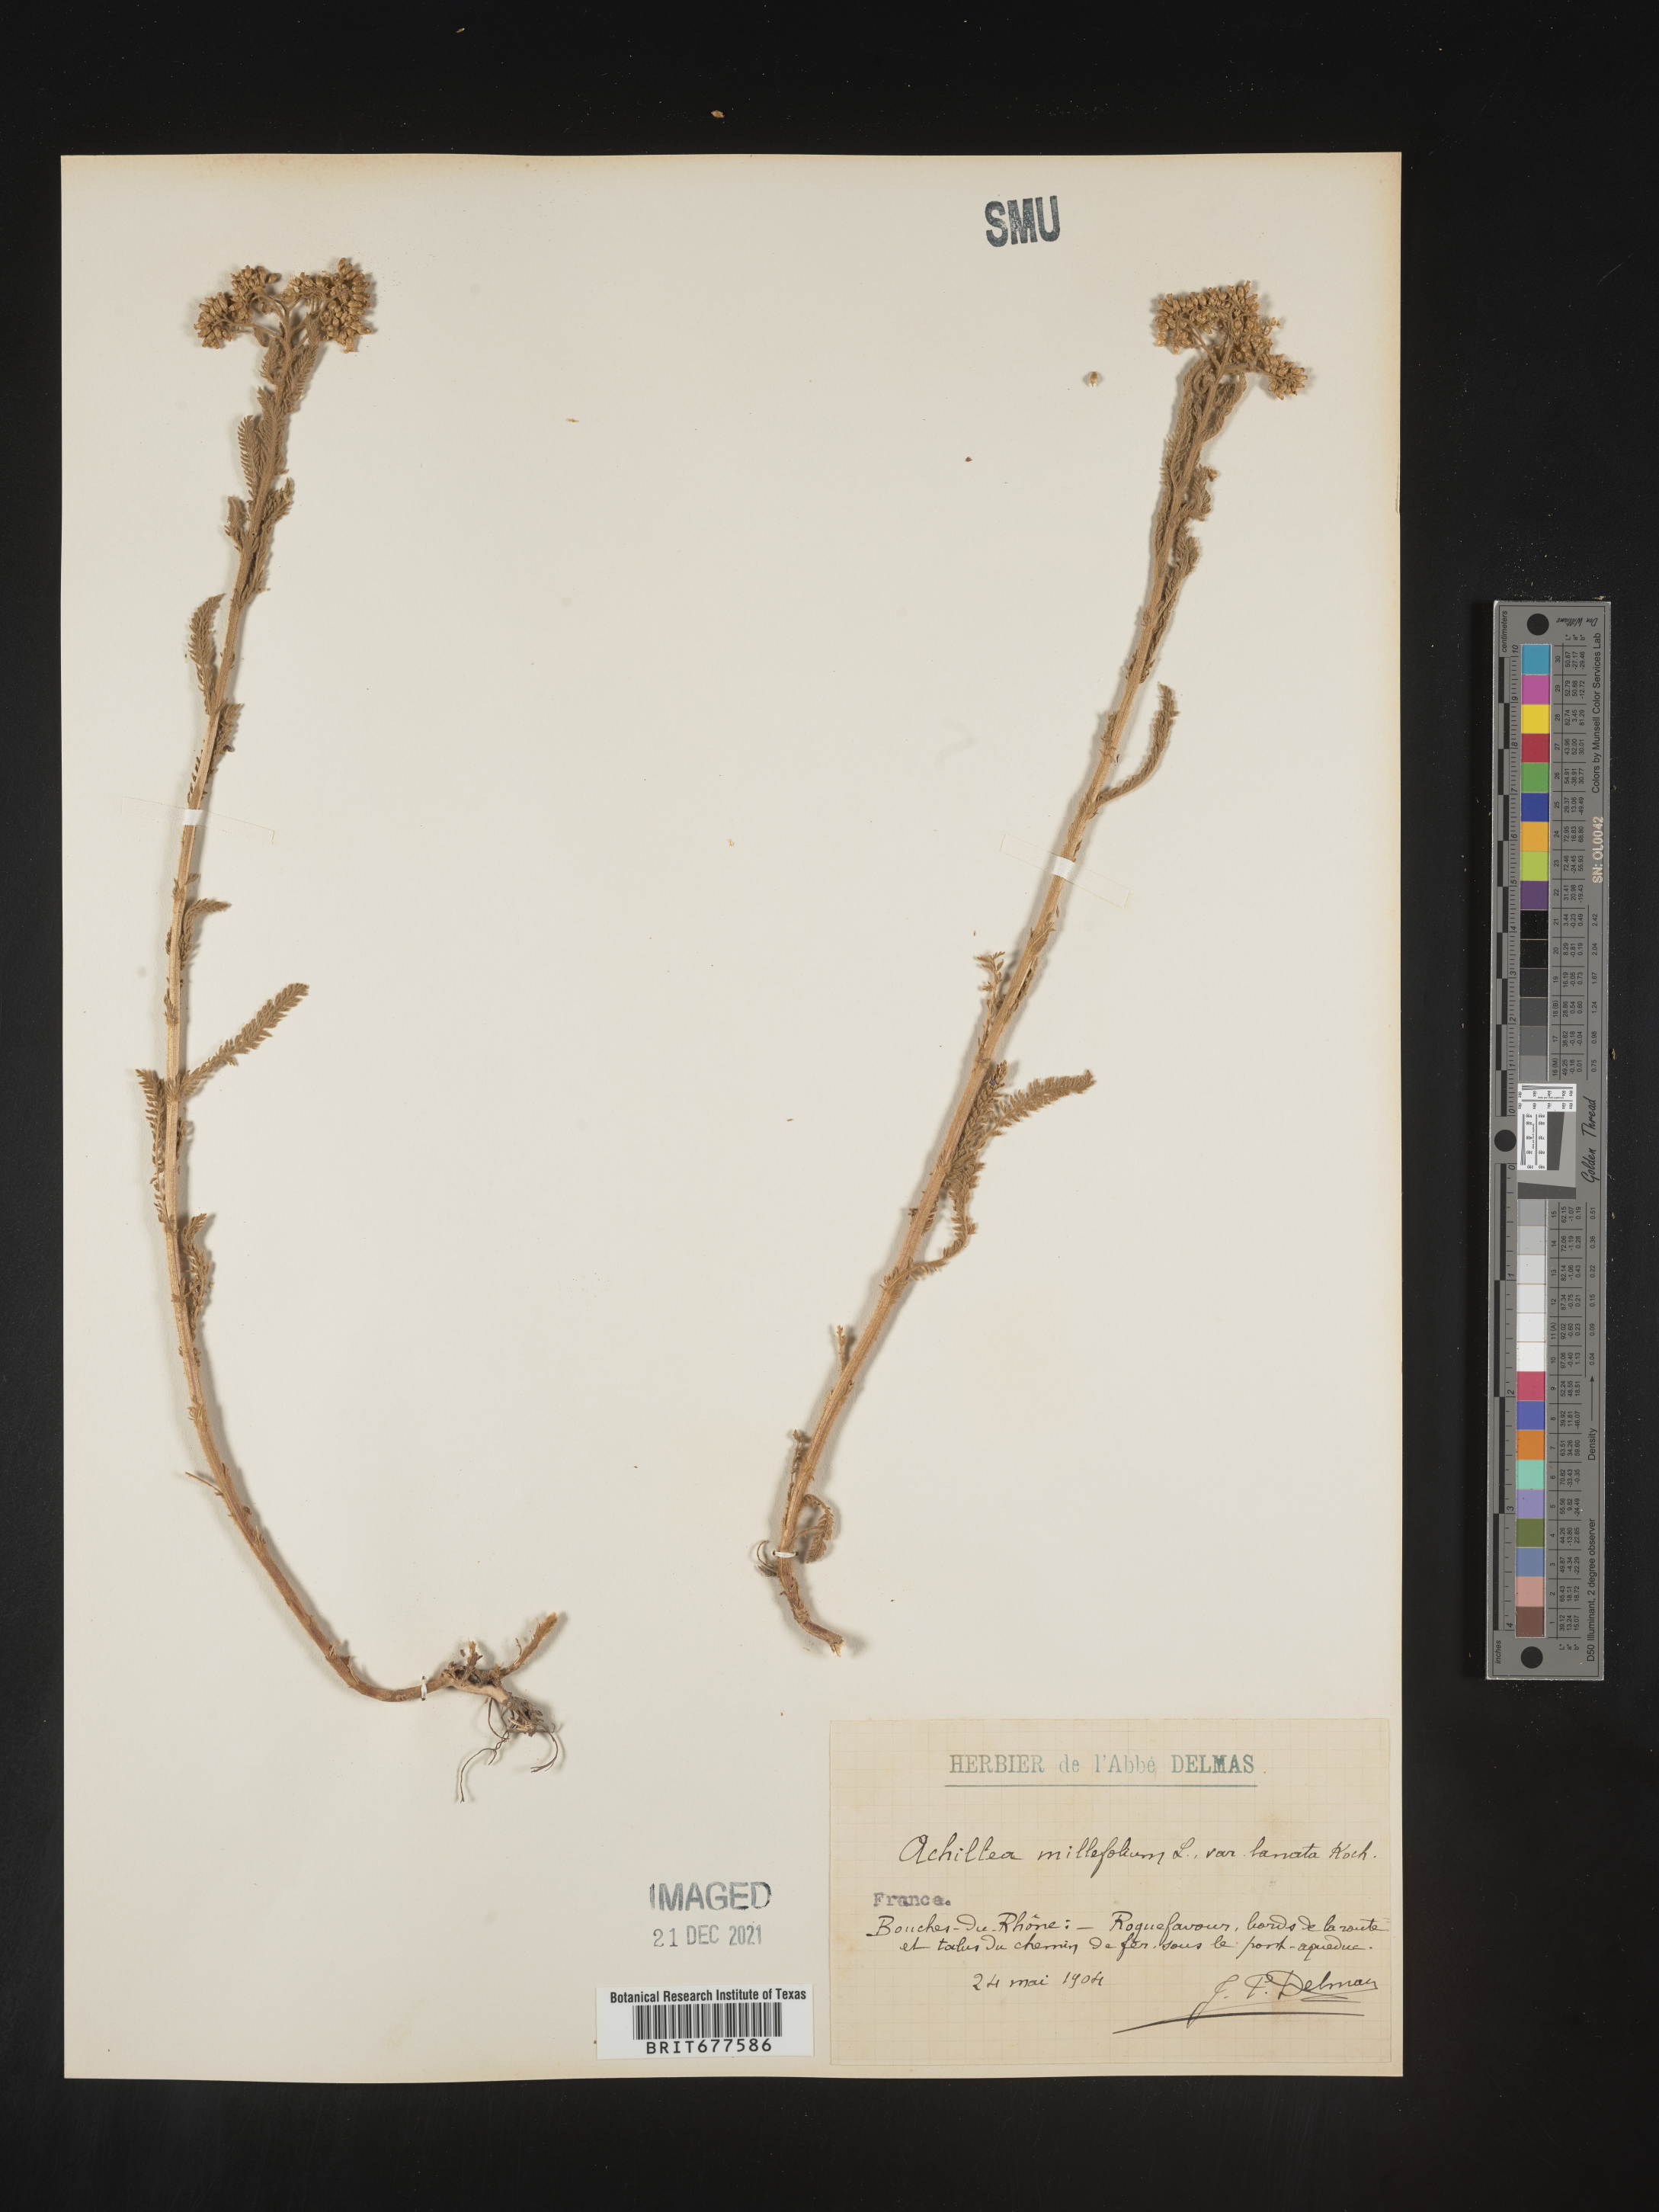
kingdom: Plantae
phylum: Tracheophyta
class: Magnoliopsida
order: Asterales
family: Asteraceae
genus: Achillea
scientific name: Achillea millefolium
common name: Yarrow
